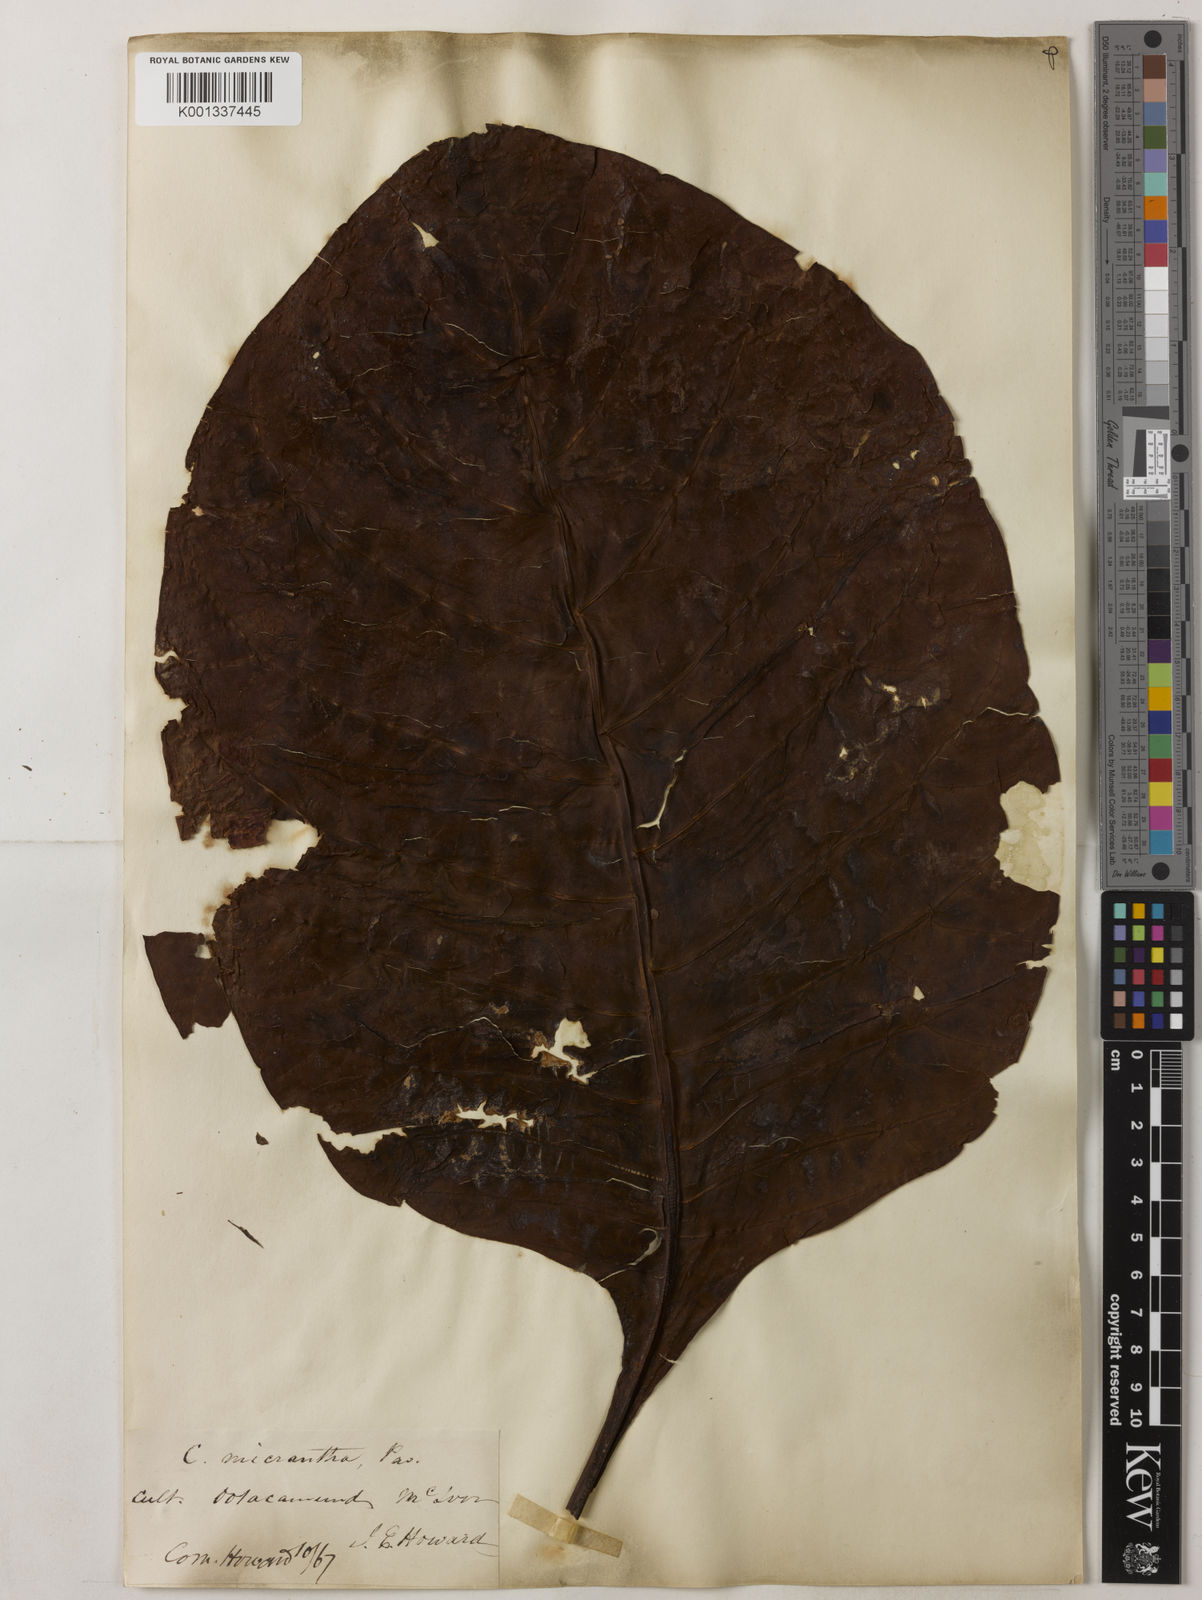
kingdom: Plantae
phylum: Tracheophyta
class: Magnoliopsida
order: Gentianales
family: Rubiaceae
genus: Cinchona
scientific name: Cinchona micrantha
